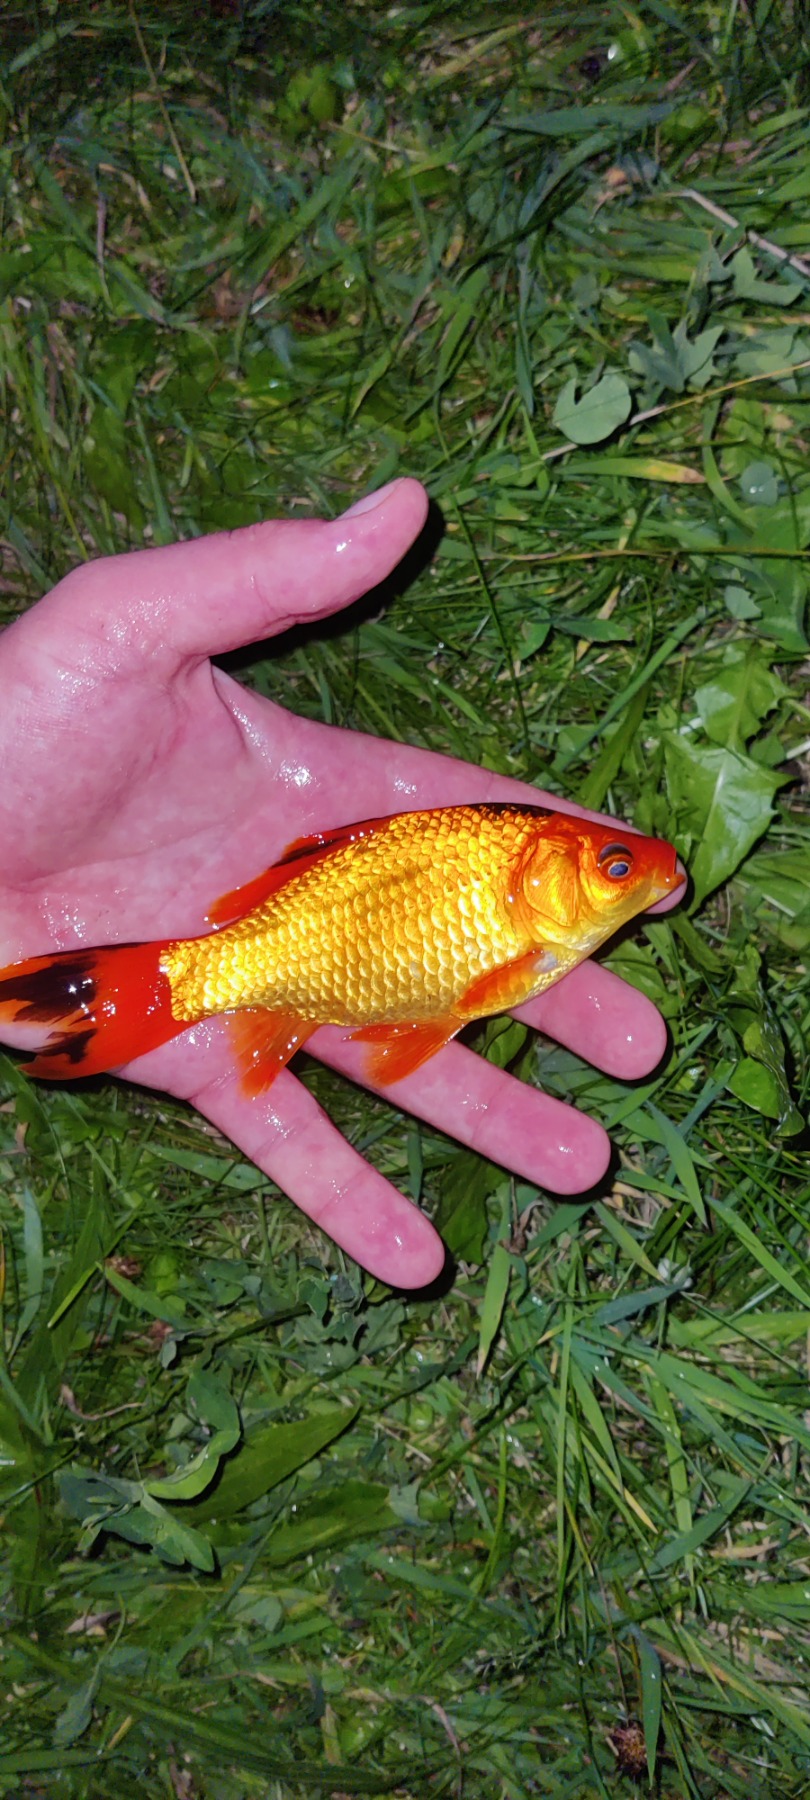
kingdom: Animalia
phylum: Chordata
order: Cypriniformes
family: Cyprinidae
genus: Carassius
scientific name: Carassius auratus
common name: Sølvkarusse
